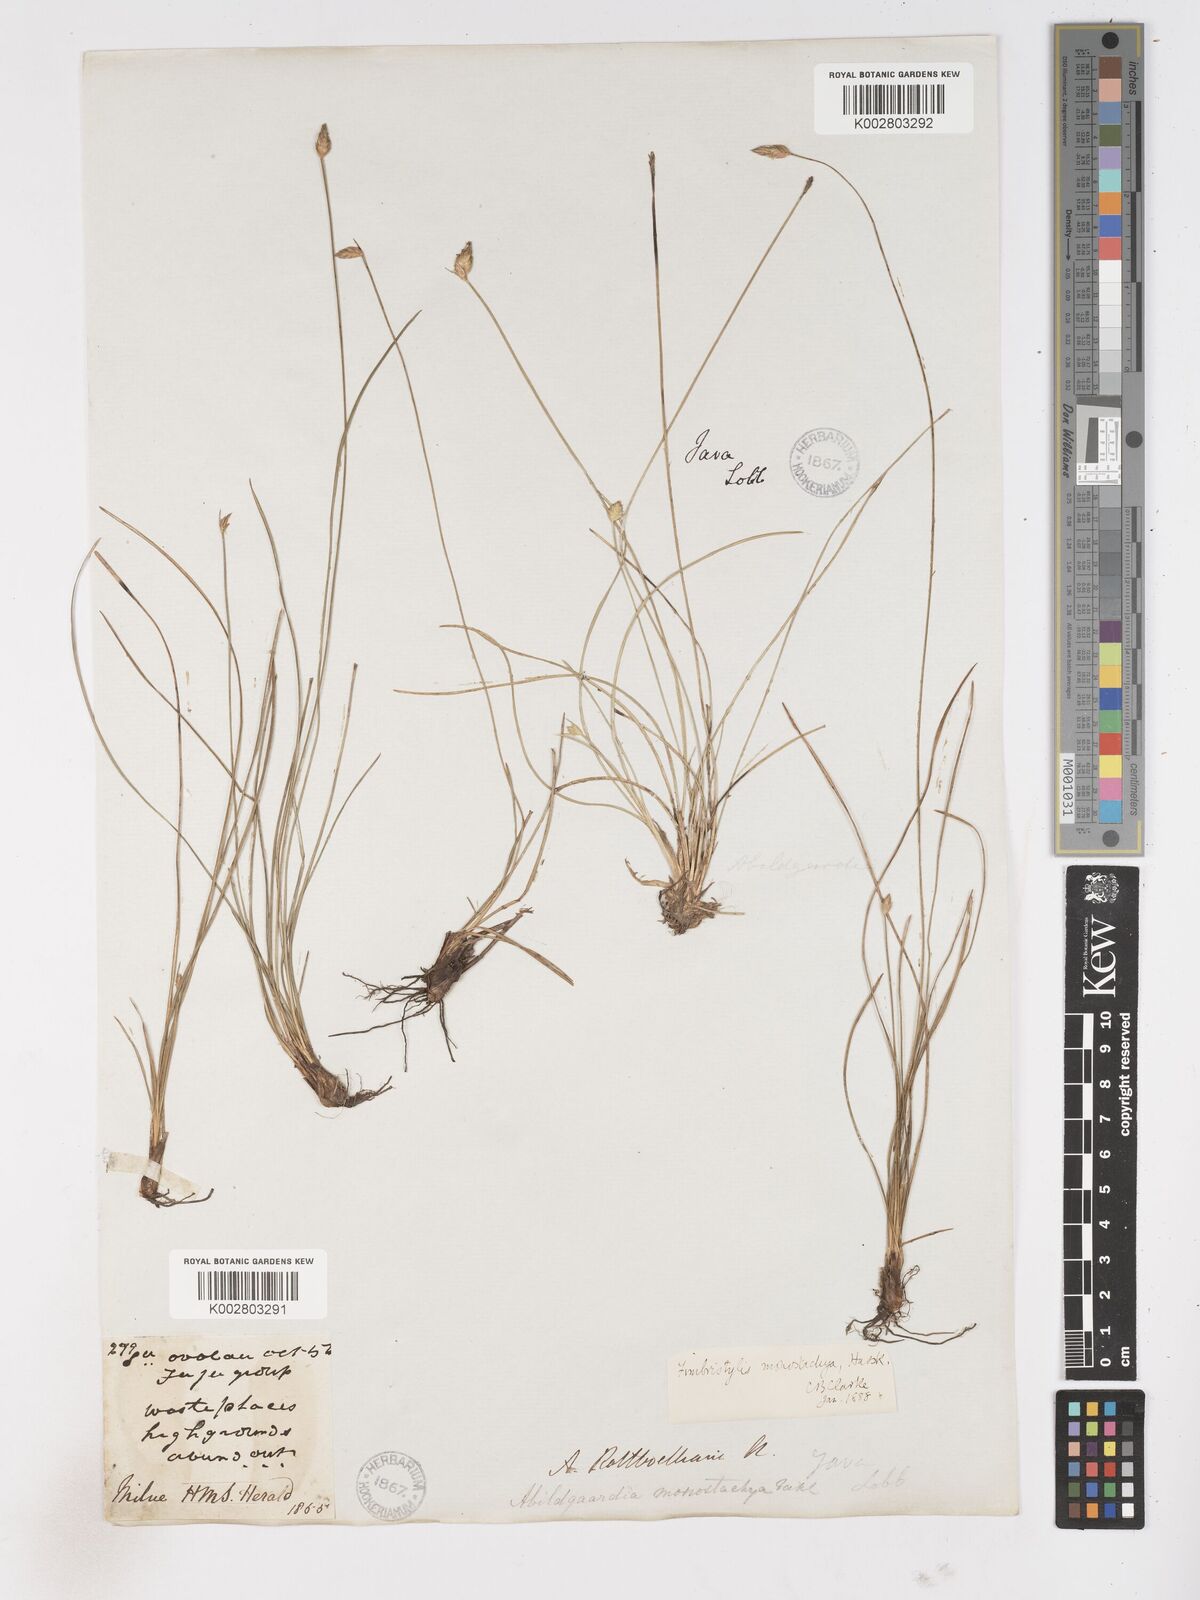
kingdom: Plantae
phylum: Tracheophyta
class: Liliopsida
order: Poales
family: Cyperaceae
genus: Abildgaardia
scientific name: Abildgaardia ovata
